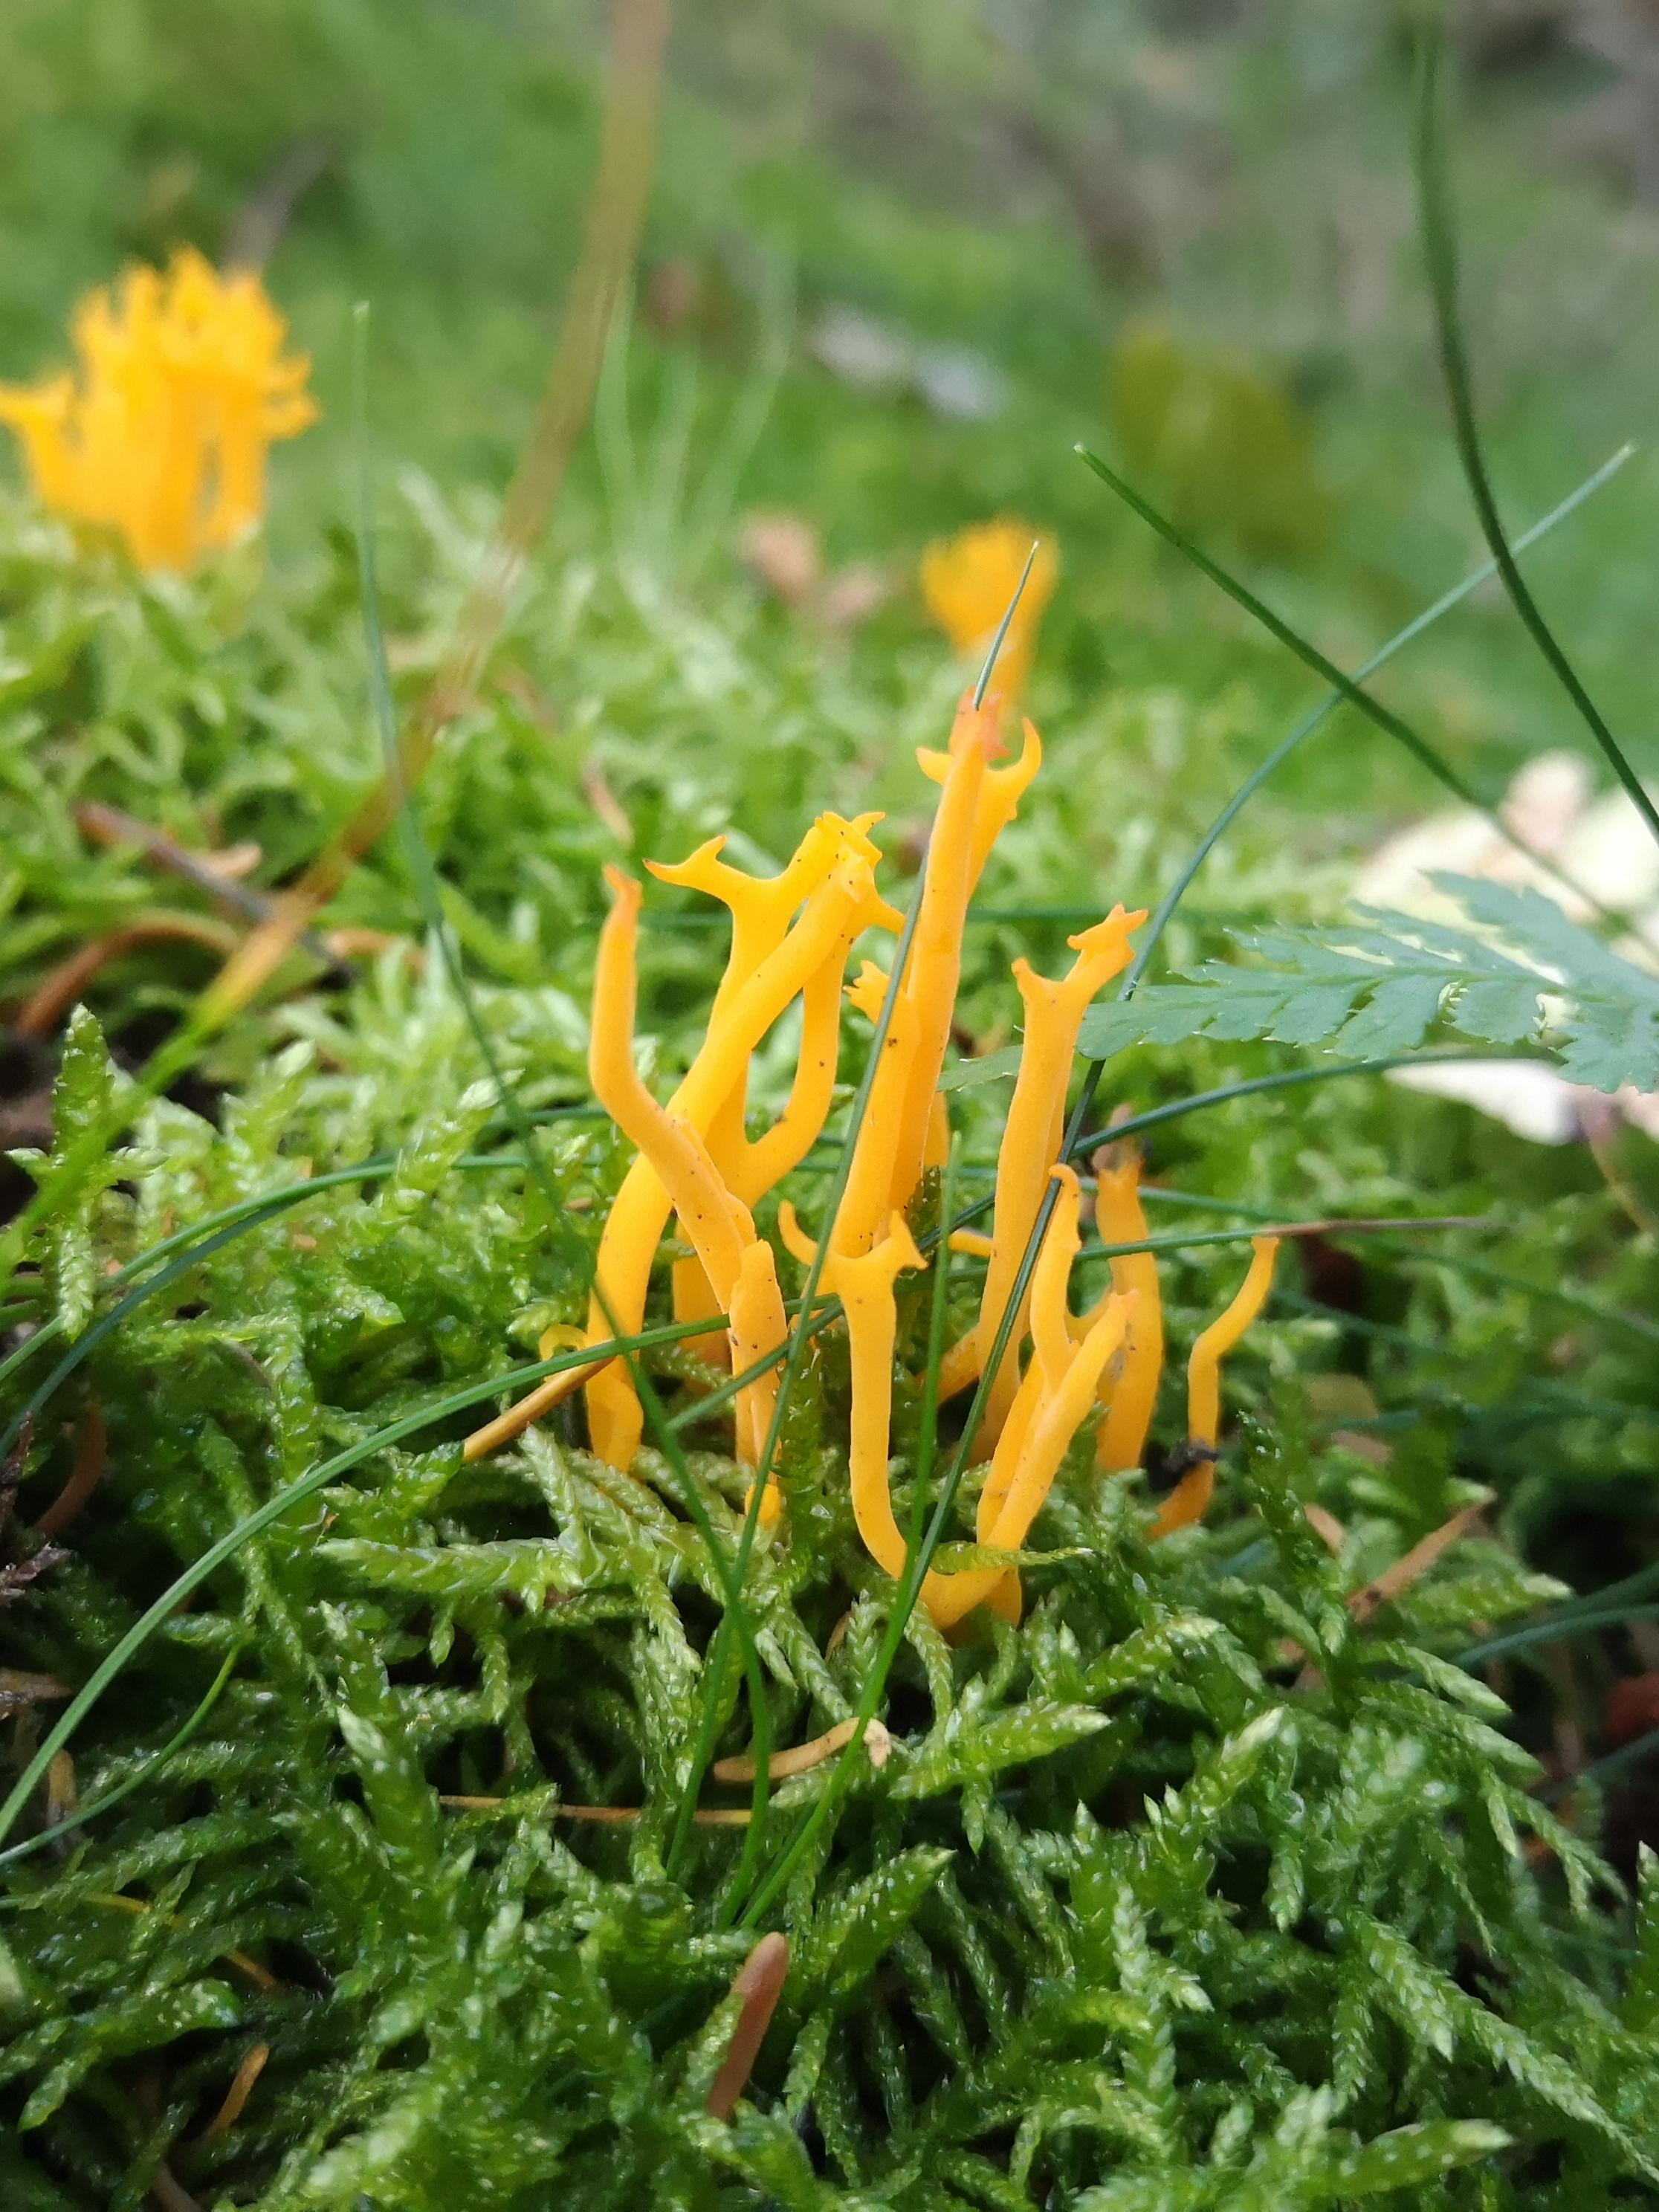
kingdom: Fungi
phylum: Basidiomycota
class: Dacrymycetes
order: Dacrymycetales
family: Dacrymycetaceae
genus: Calocera
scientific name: Calocera viscosa
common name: almindelig guldgaffel
